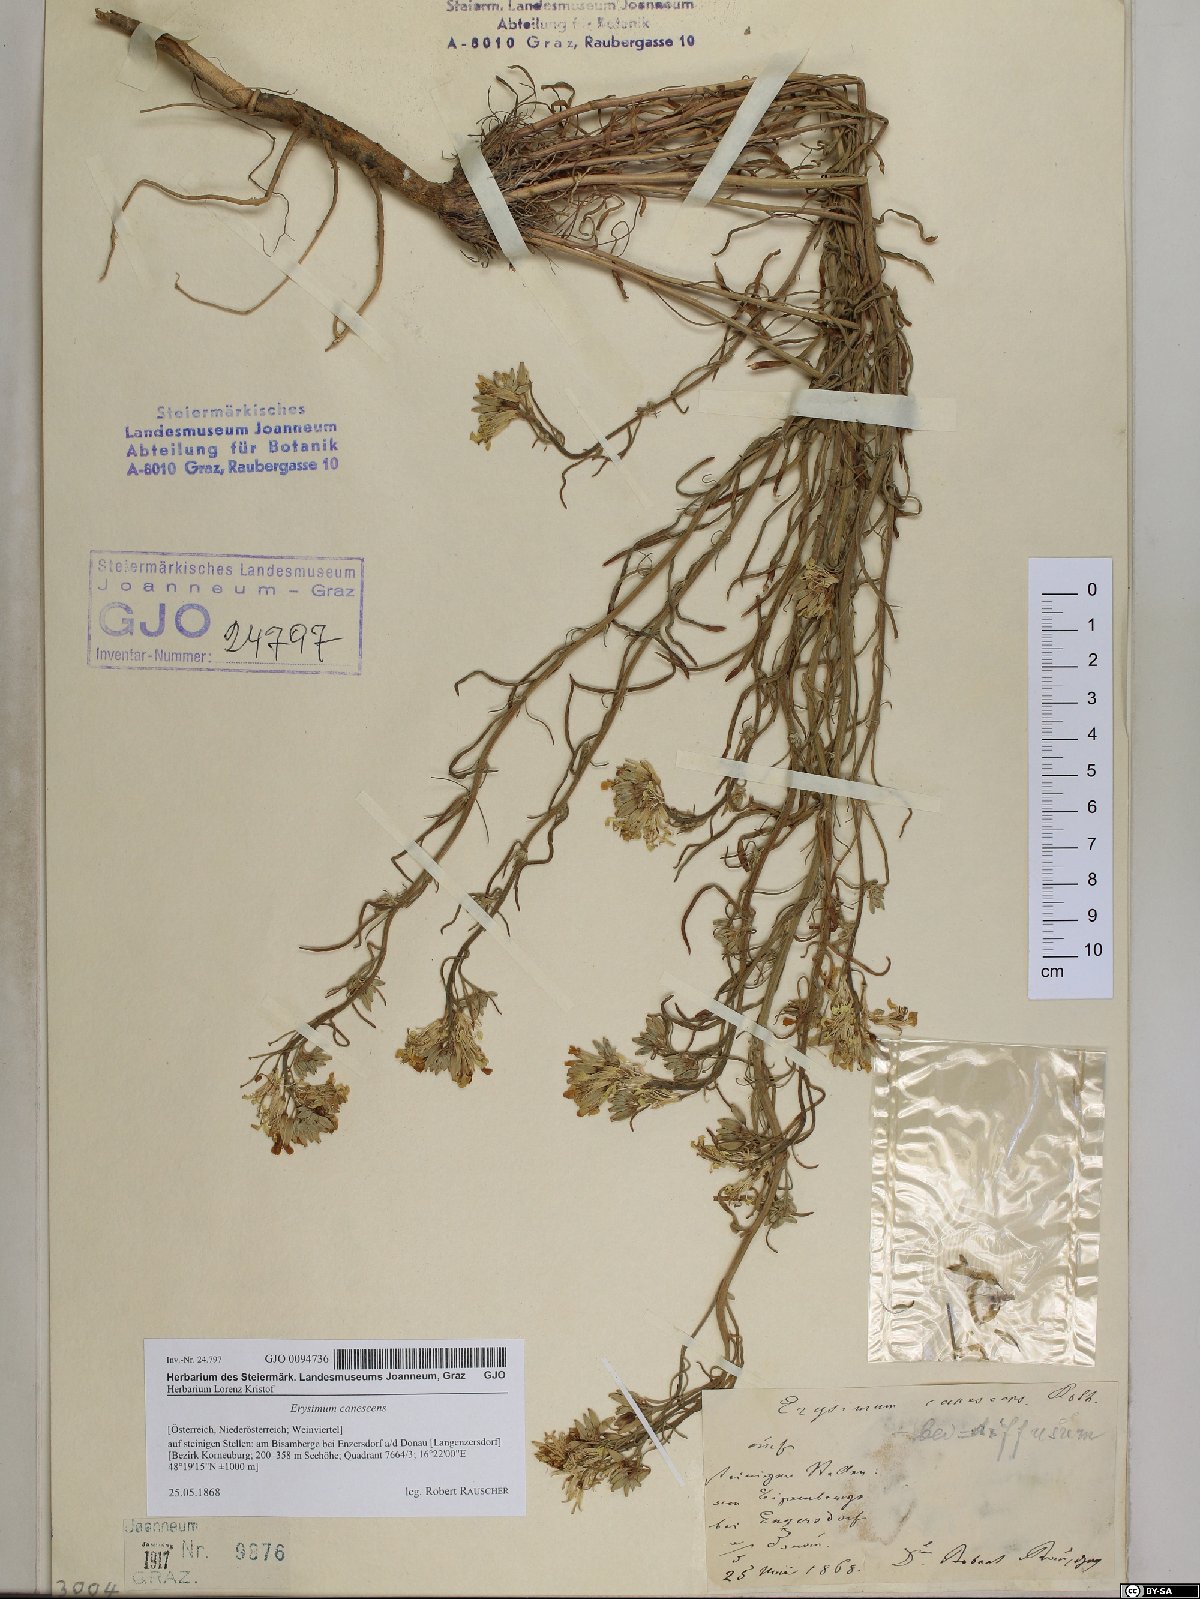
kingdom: Plantae
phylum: Tracheophyta
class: Magnoliopsida
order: Brassicales
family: Brassicaceae
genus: Erysimum
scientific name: Erysimum canescens
